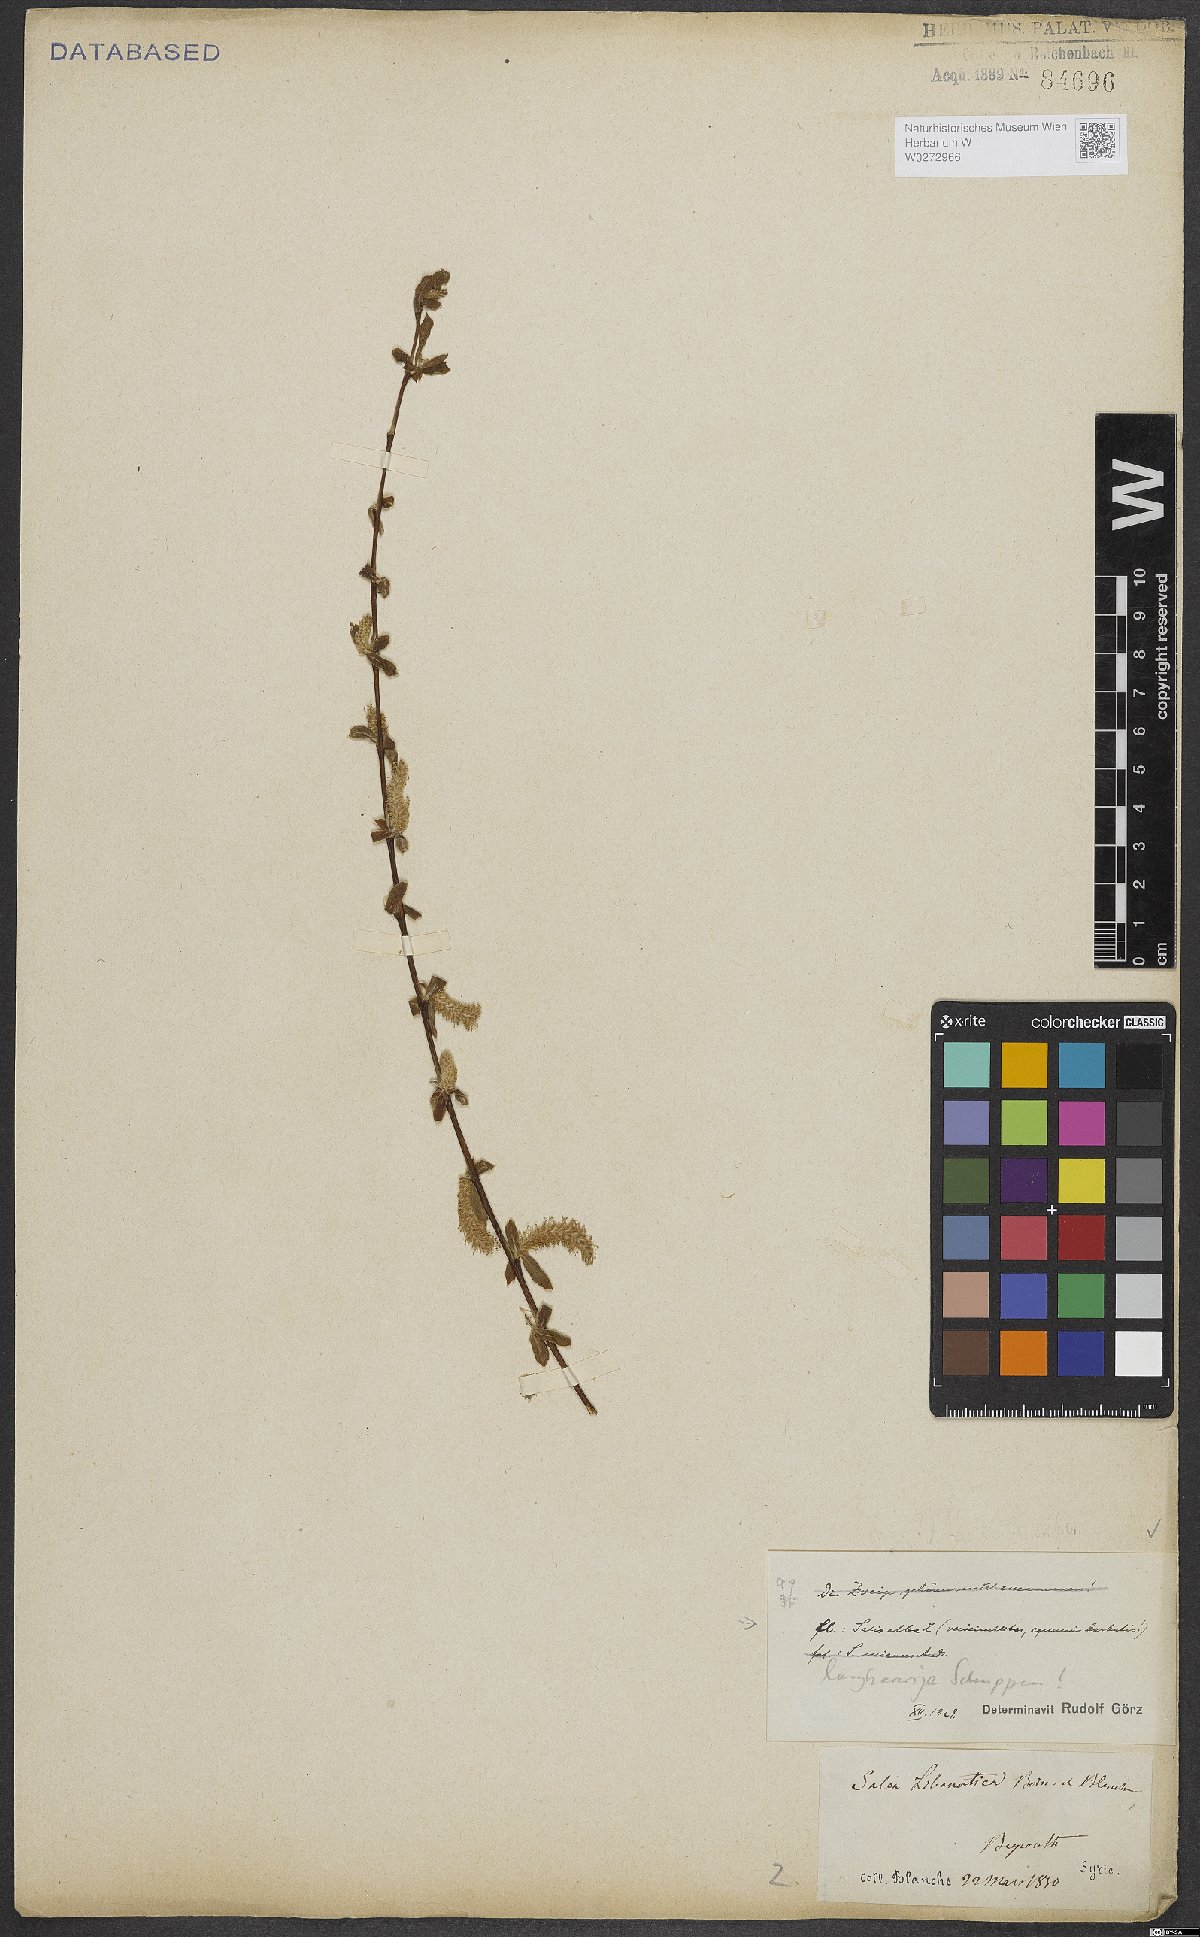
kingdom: Plantae
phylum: Tracheophyta
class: Magnoliopsida
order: Malpighiales
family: Salicaceae
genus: Salix
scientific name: Salix alba
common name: White willow
